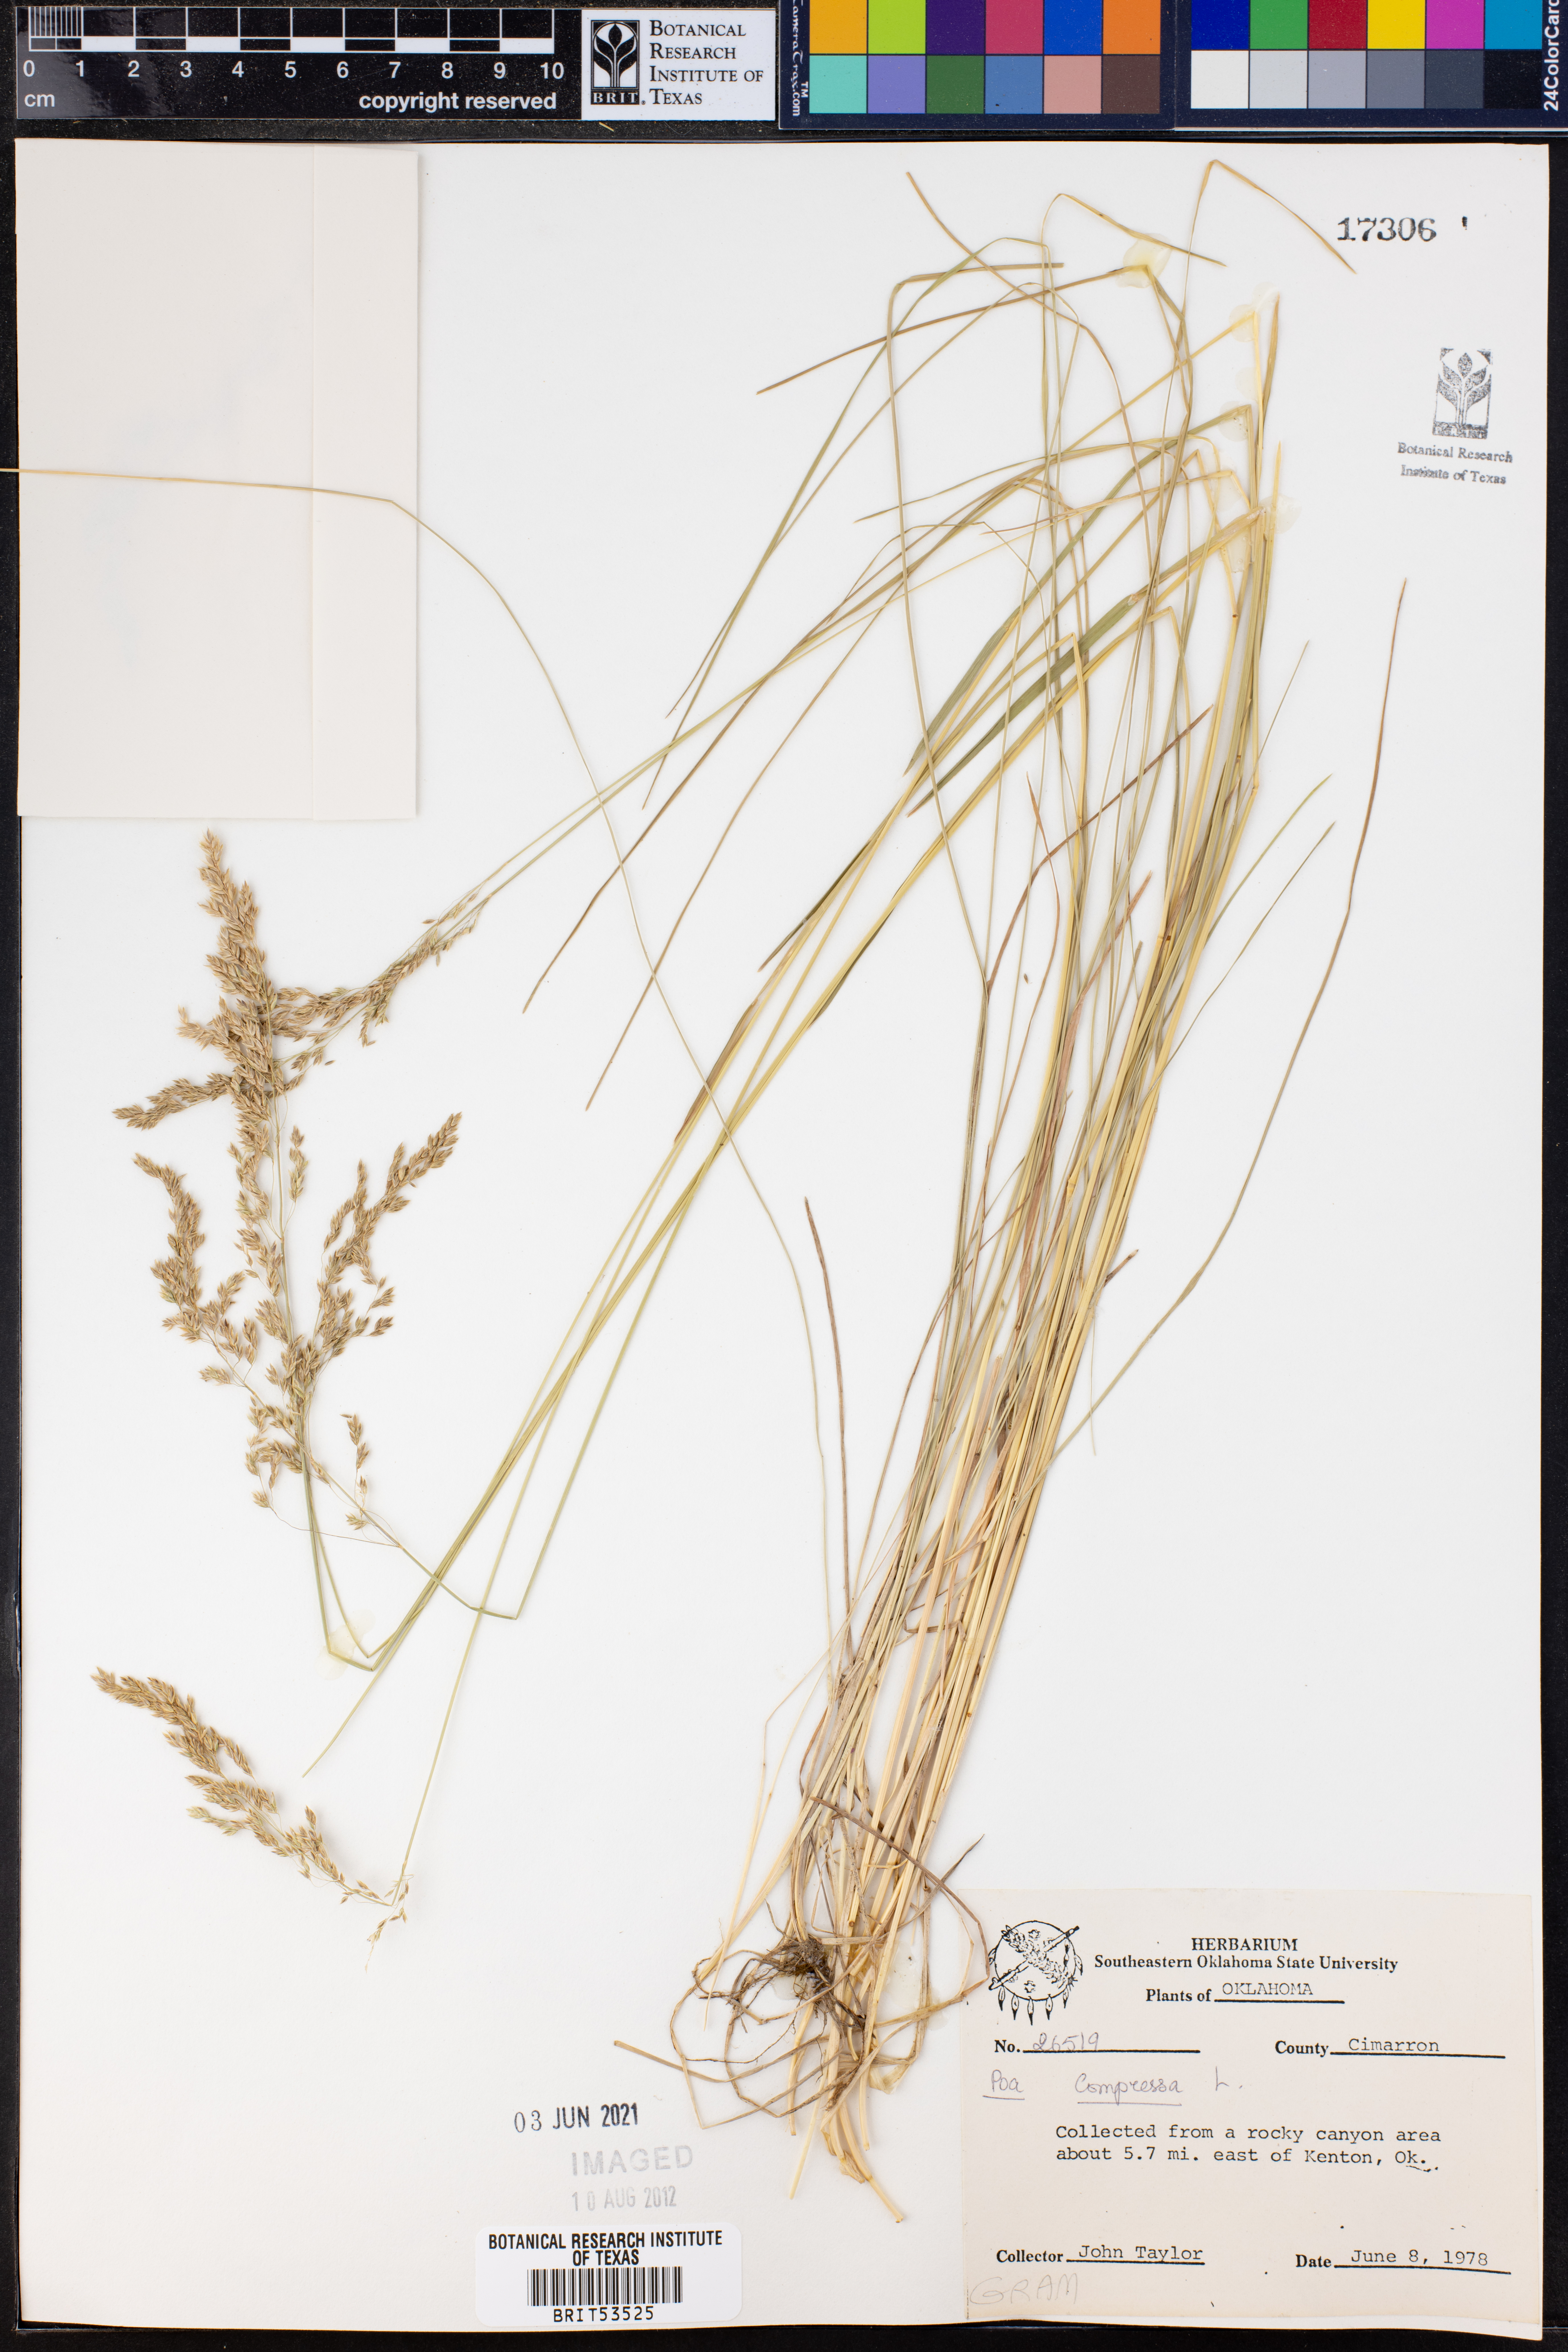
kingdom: Plantae
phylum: Tracheophyta
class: Liliopsida
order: Poales
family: Poaceae
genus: Poa
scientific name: Poa compressa
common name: Canada bluegrass
